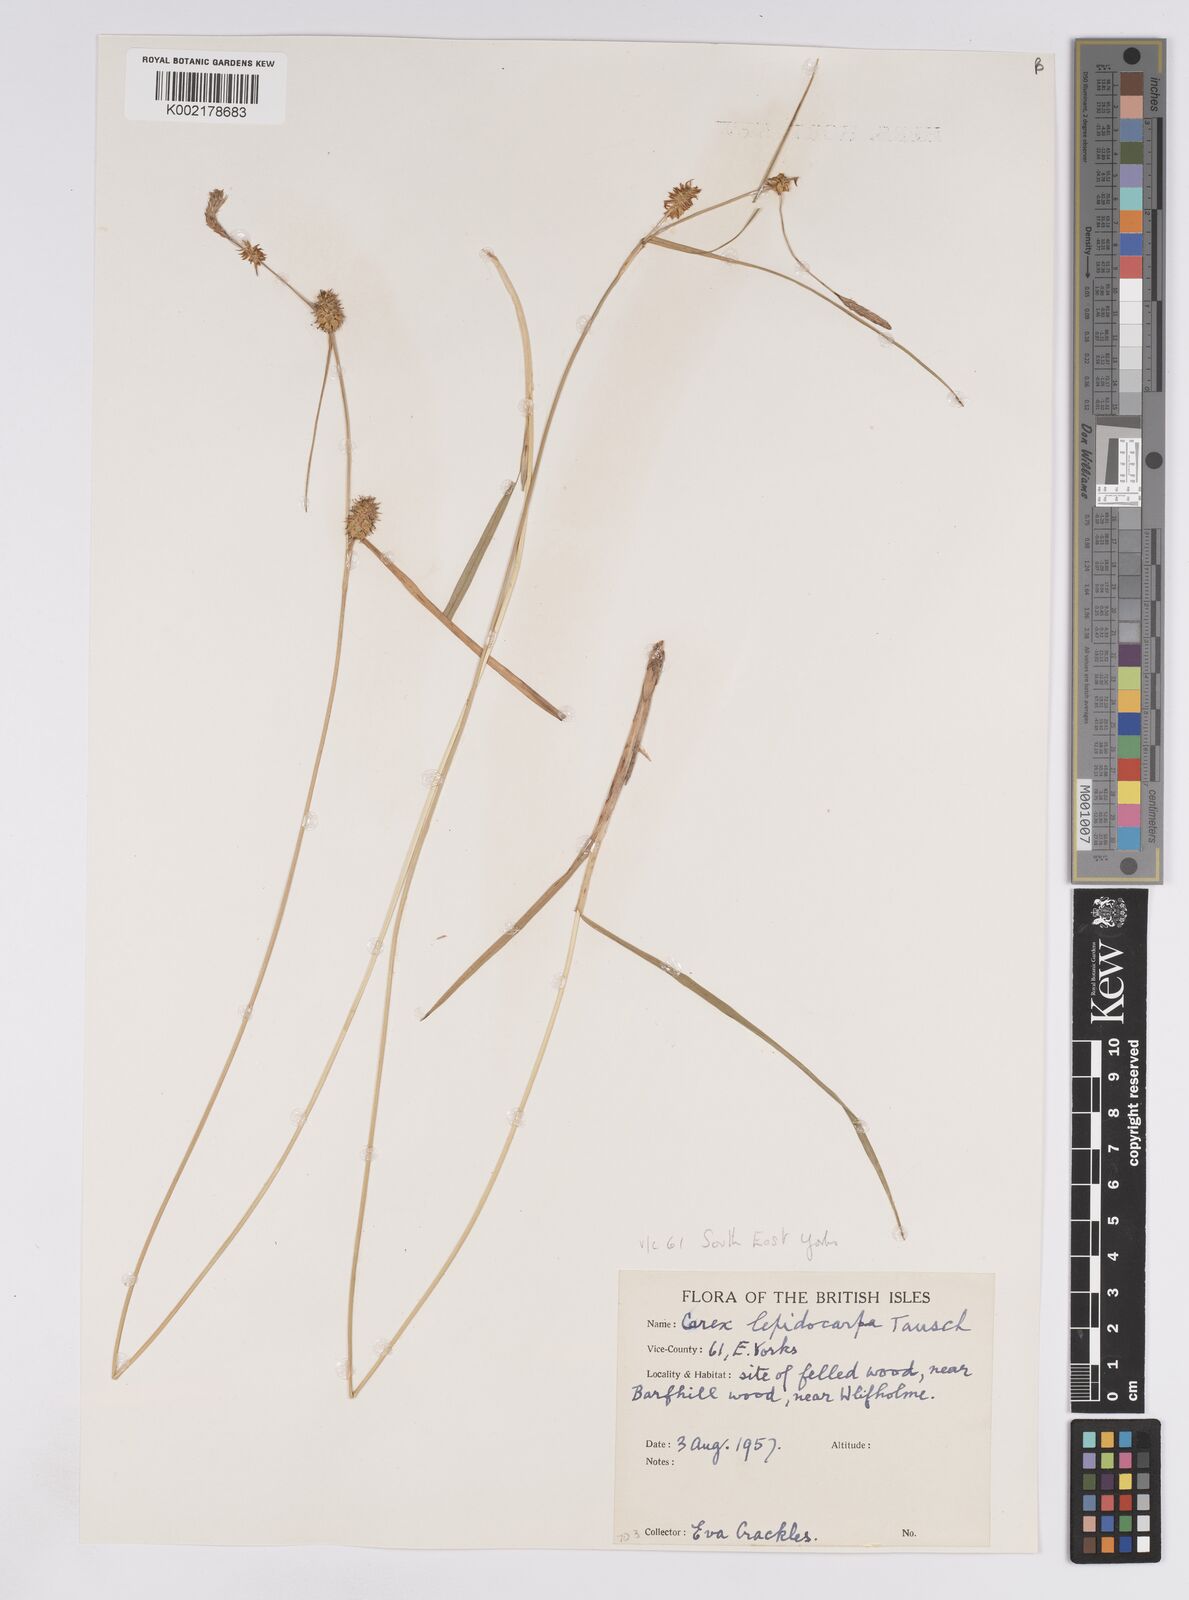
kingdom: Plantae
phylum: Tracheophyta
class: Liliopsida
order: Poales
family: Cyperaceae
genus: Carex
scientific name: Carex lepidocarpa
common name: Long-stalked yellow-sedge
